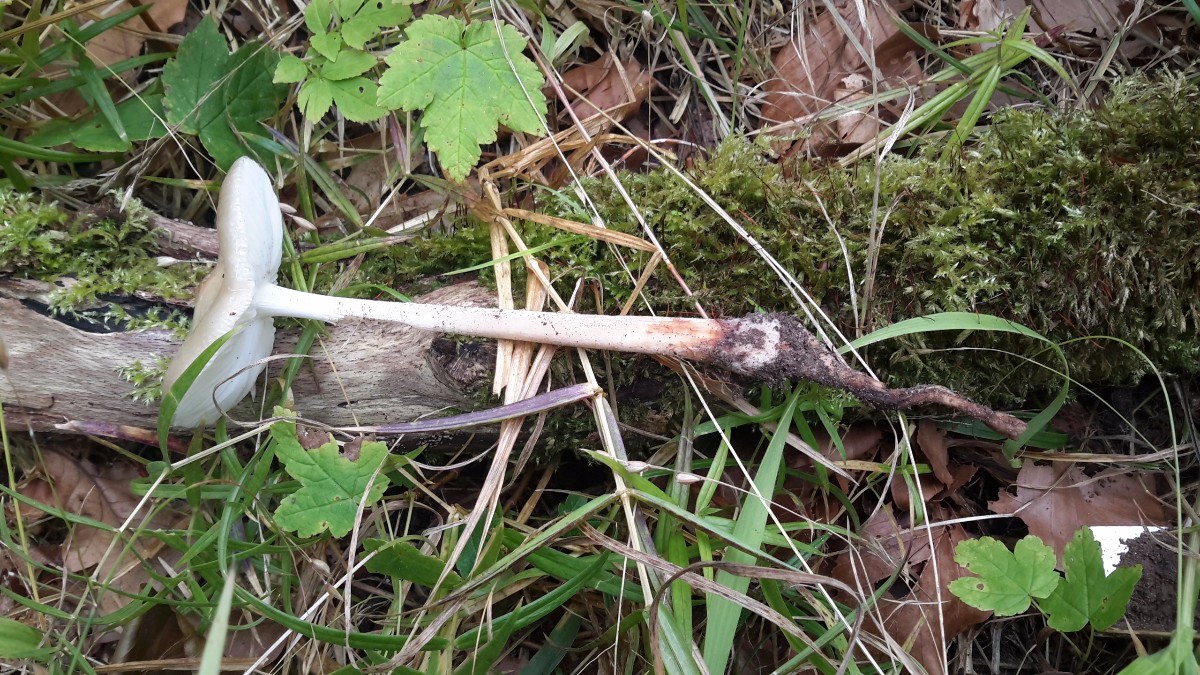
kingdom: Fungi
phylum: Basidiomycota
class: Agaricomycetes
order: Agaricales
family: Physalacriaceae
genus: Hymenopellis
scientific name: Hymenopellis radicata
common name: almindelig pælerodshat
